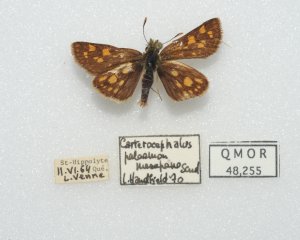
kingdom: Animalia
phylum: Arthropoda
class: Insecta
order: Lepidoptera
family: Hesperiidae
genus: Carterocephalus
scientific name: Carterocephalus palaemon
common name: Chequered Skipper
